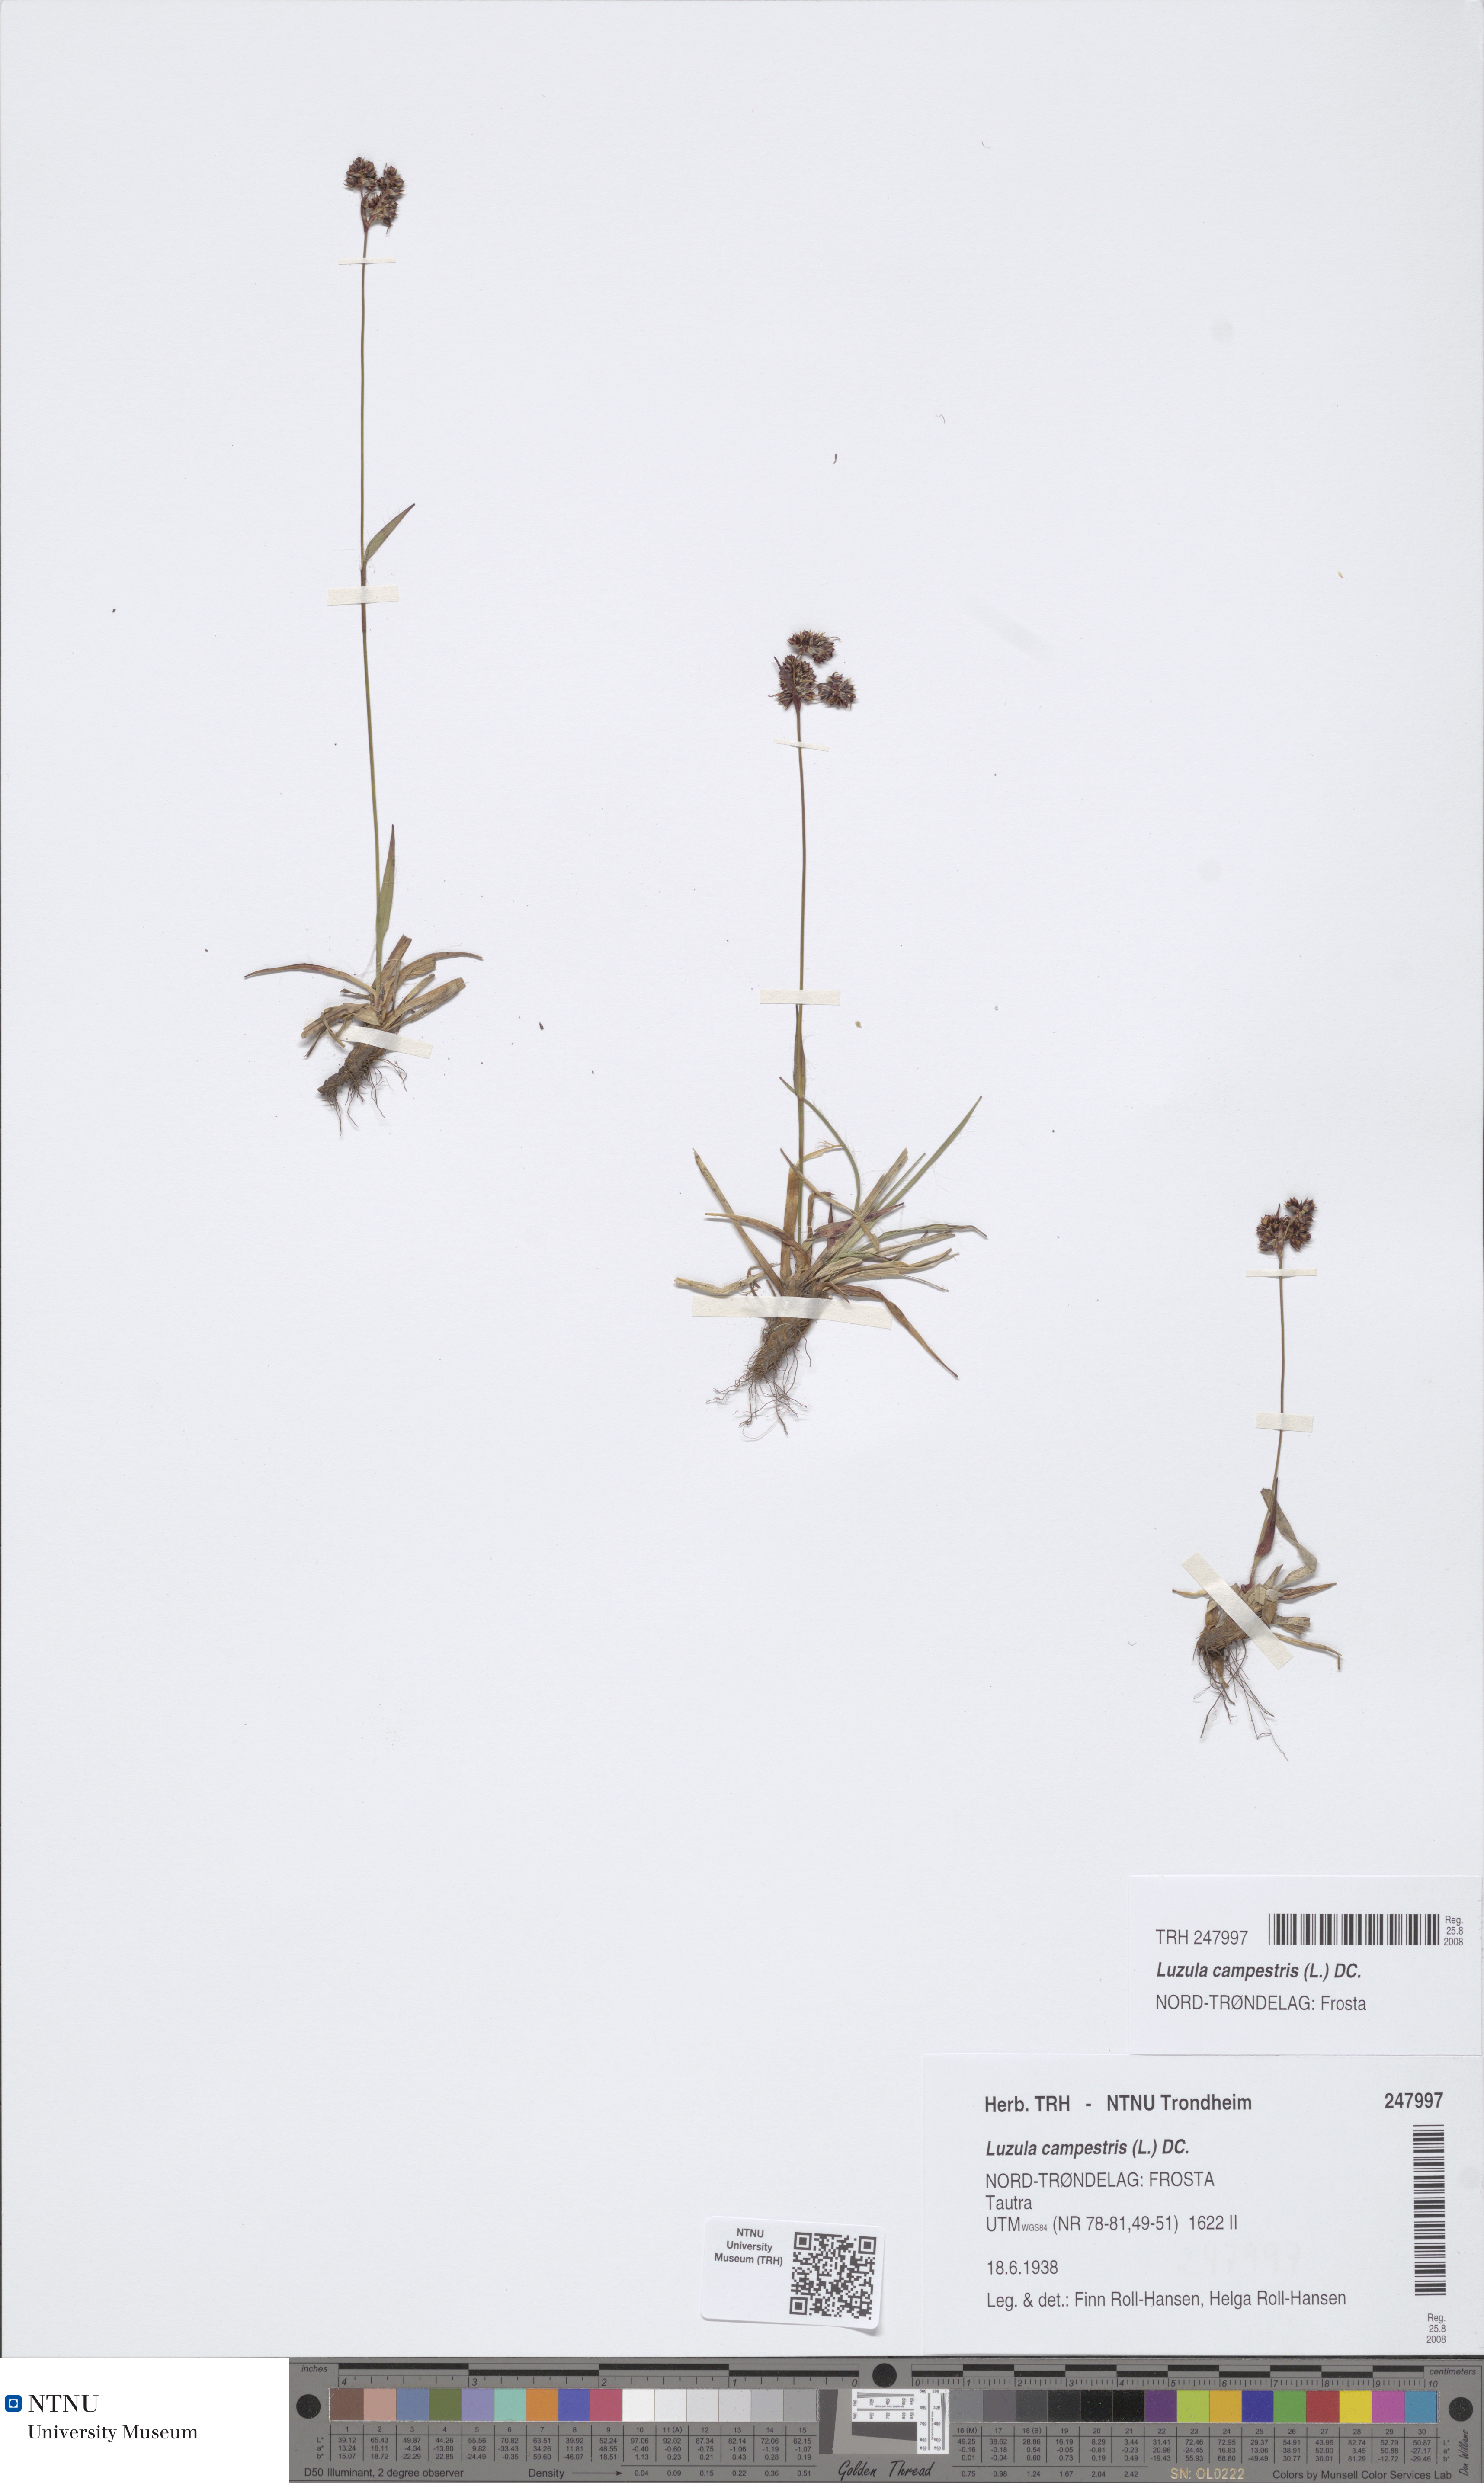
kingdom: Plantae
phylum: Tracheophyta
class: Liliopsida
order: Poales
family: Juncaceae
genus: Luzula
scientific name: Luzula campestris
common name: Field wood-rush
